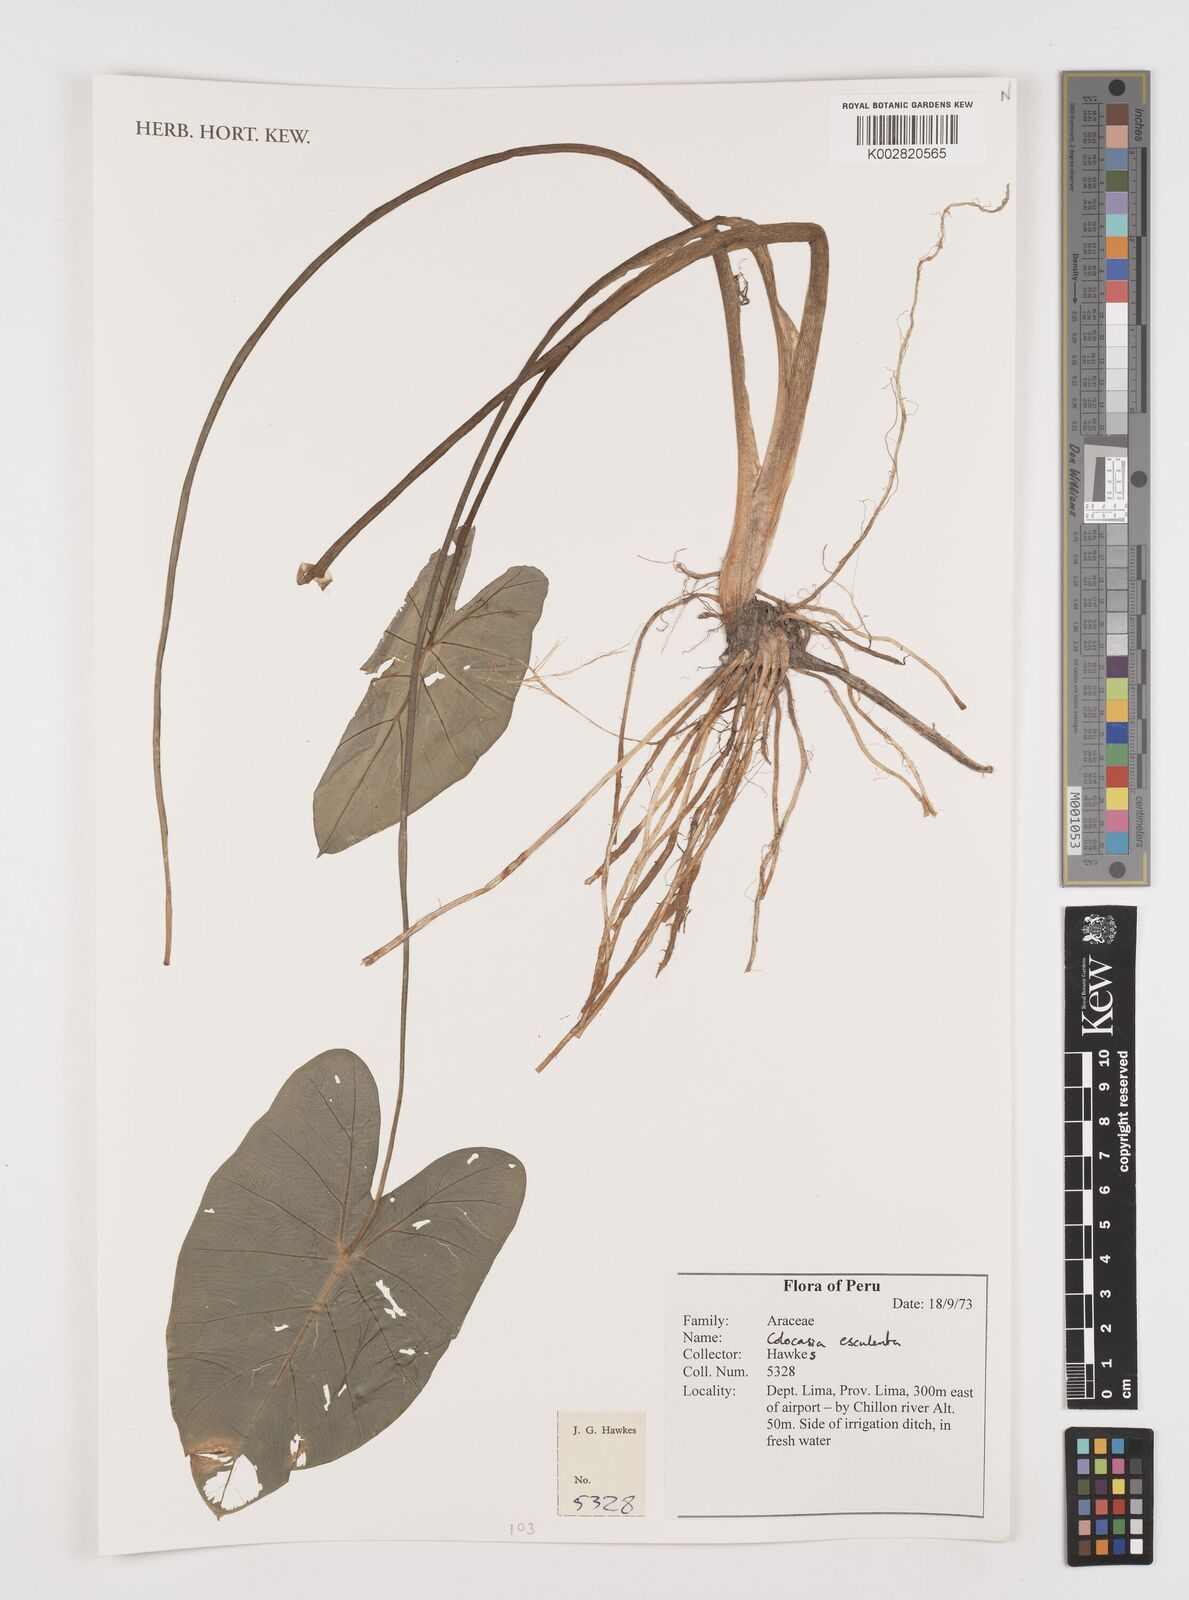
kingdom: Plantae
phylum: Tracheophyta
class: Liliopsida
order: Alismatales
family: Araceae
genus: Colocasia
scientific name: Colocasia esculenta
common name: Taro
